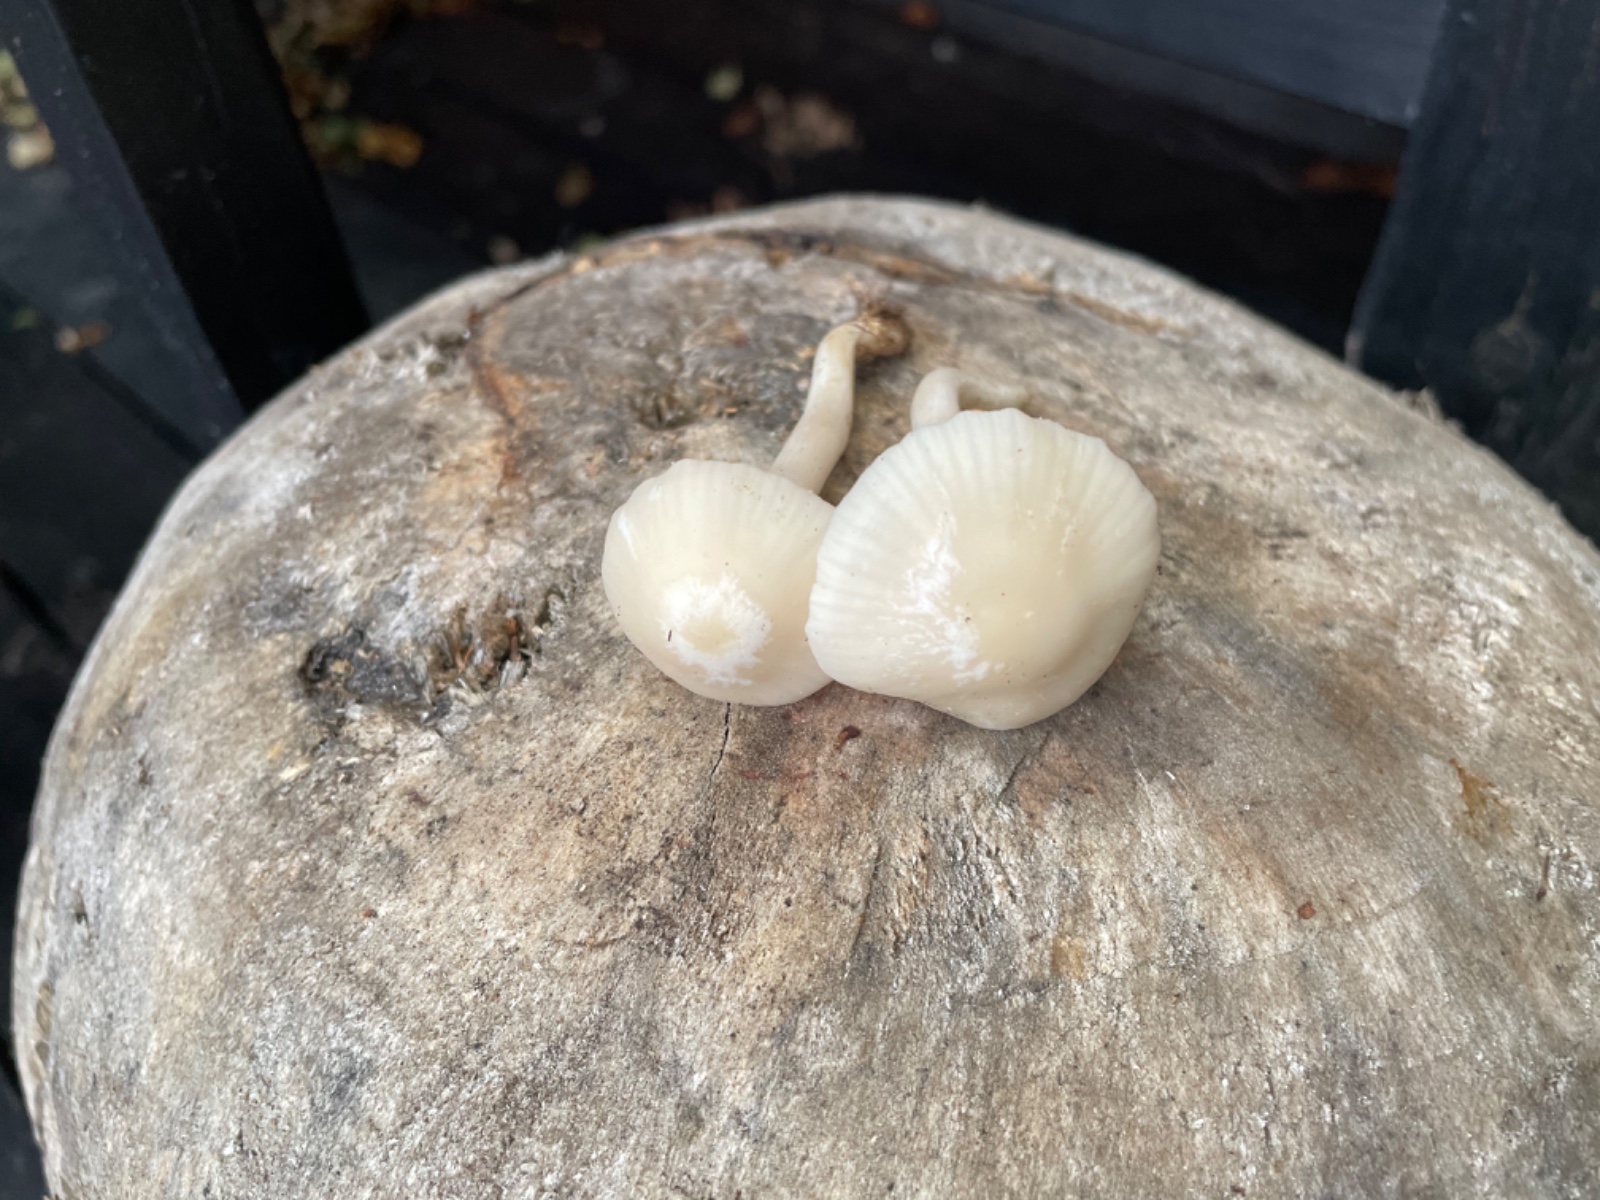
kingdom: Fungi
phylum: Basidiomycota
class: Agaricomycetes
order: Agaricales
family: Hygrophoraceae
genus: Cuphophyllus
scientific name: Cuphophyllus virgineus
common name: snehvid vokshat
